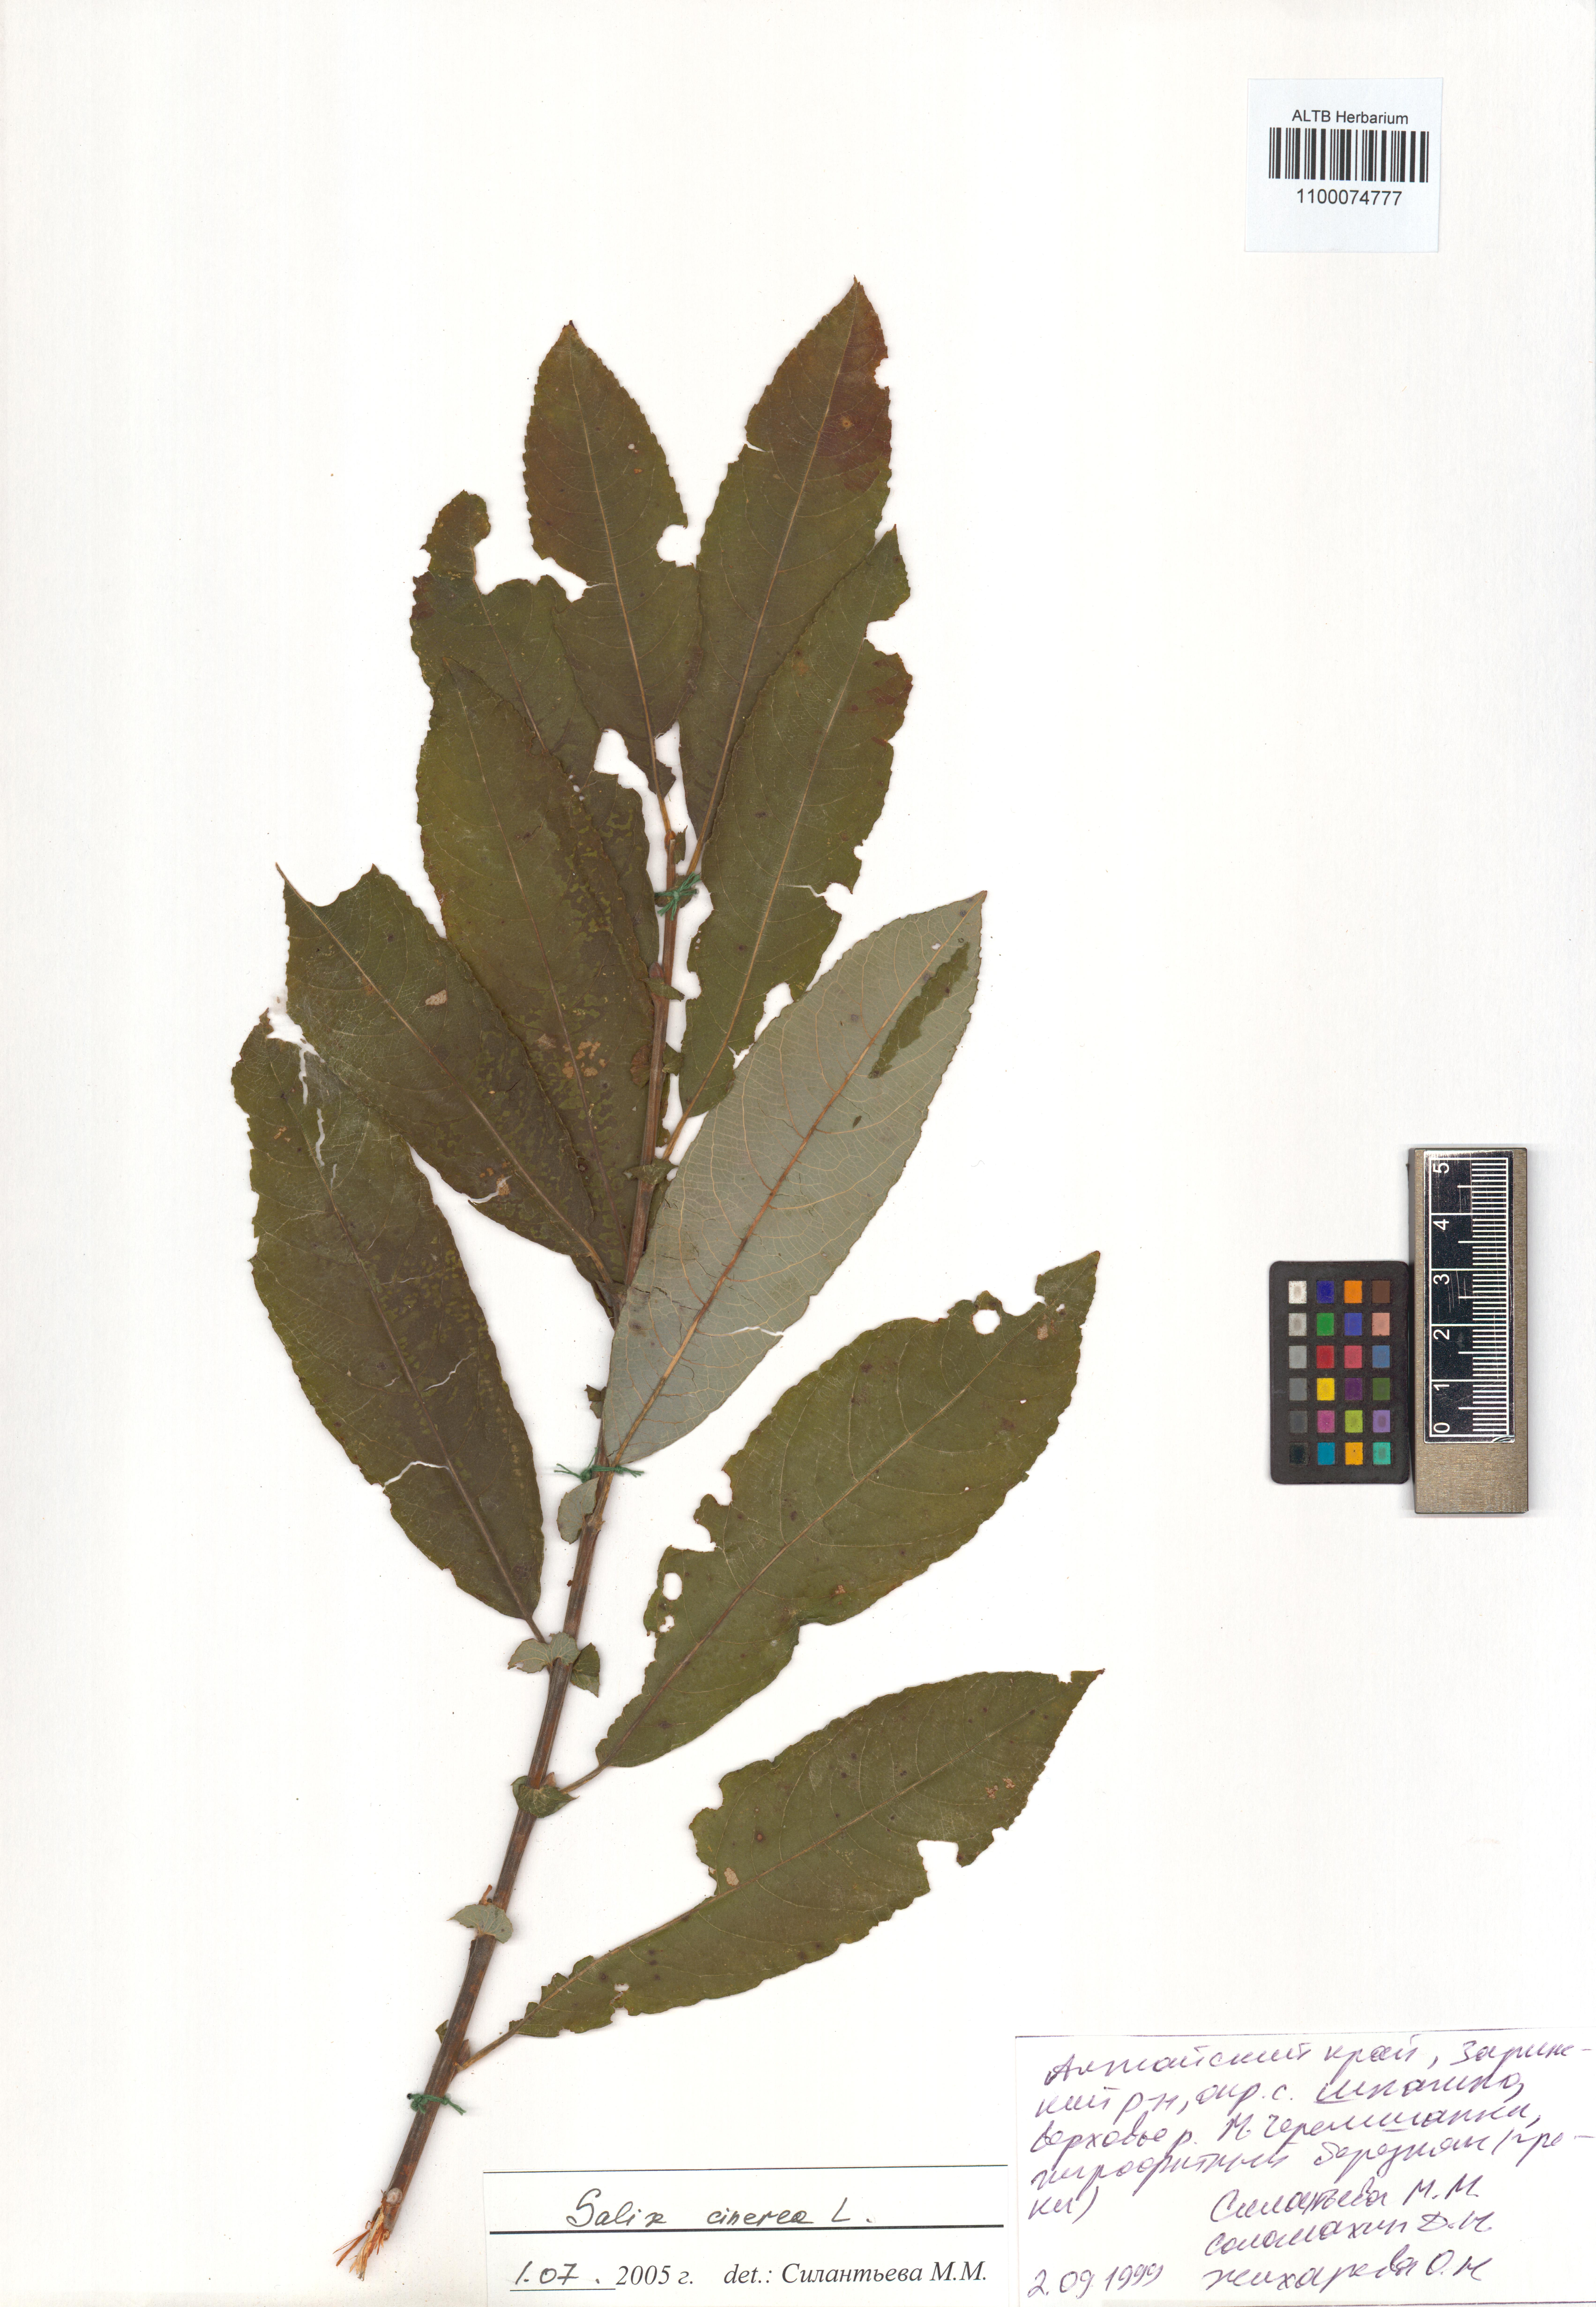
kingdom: Plantae
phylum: Tracheophyta
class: Magnoliopsida
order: Malpighiales
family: Salicaceae
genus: Salix
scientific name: Salix cinerea
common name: Common sallow
